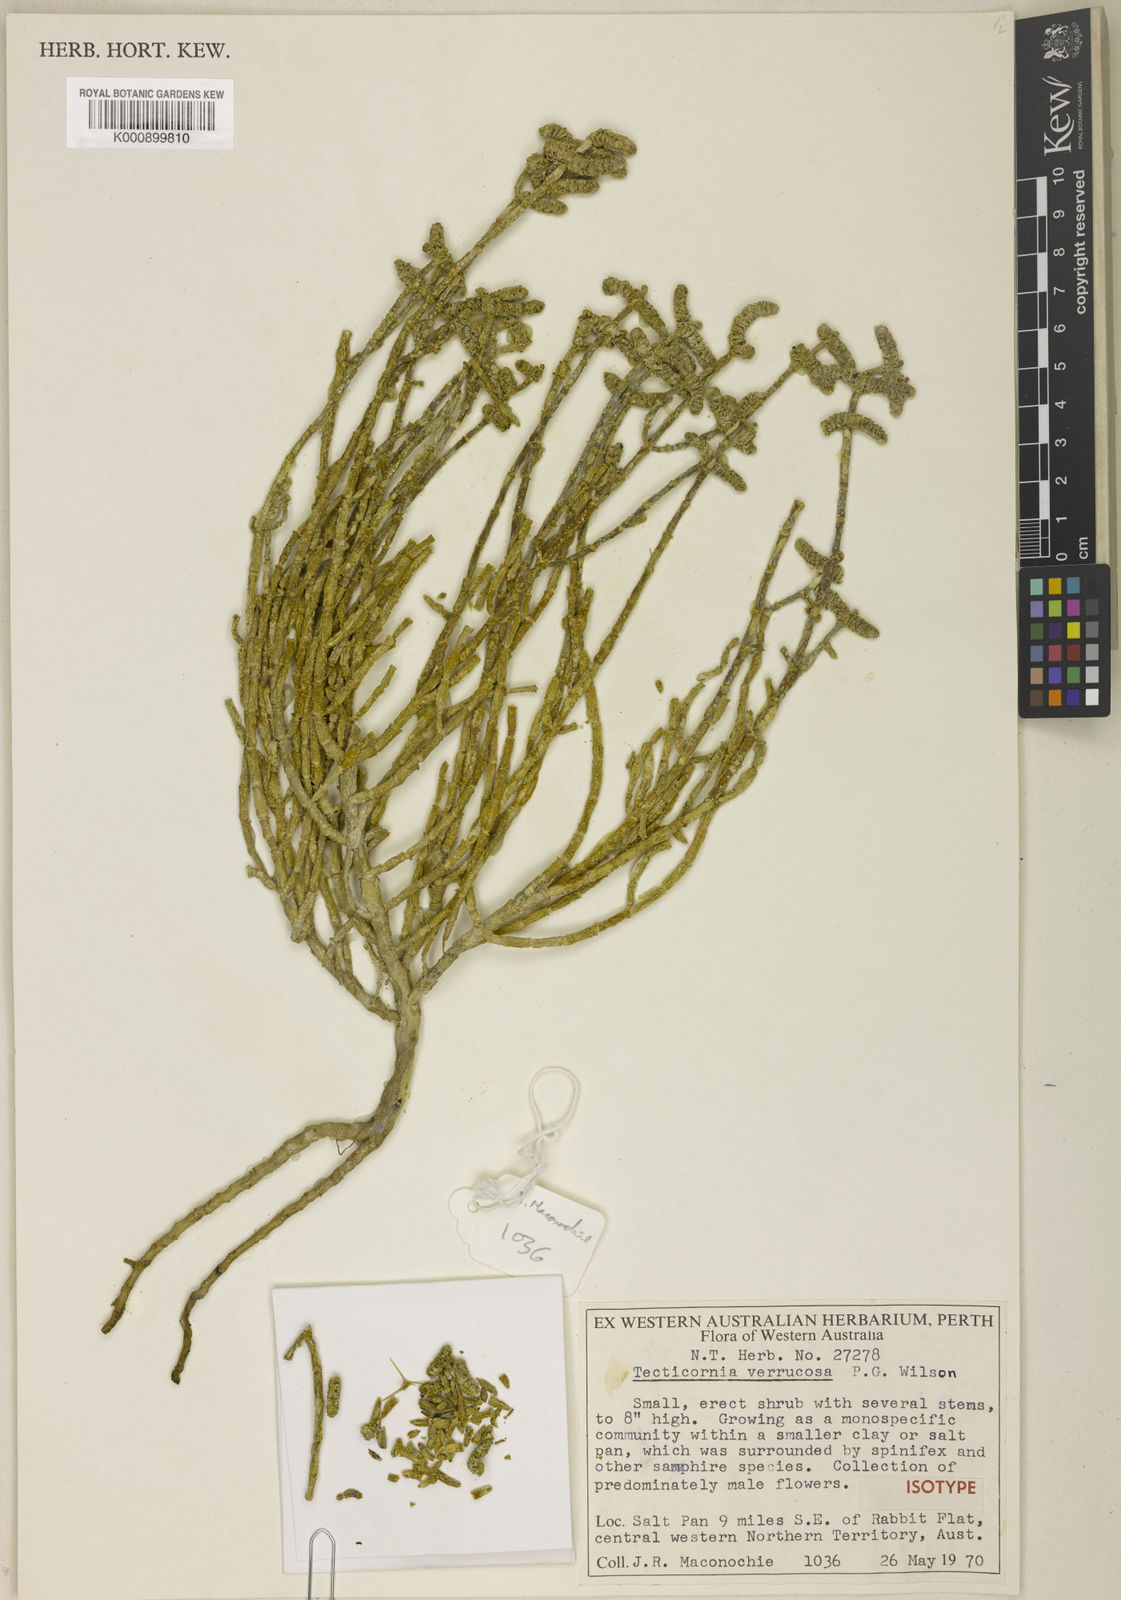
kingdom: Plantae
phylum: Tracheophyta
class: Magnoliopsida
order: Caryophyllales
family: Amaranthaceae
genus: Tecticornia
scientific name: Tecticornia verrucosa
